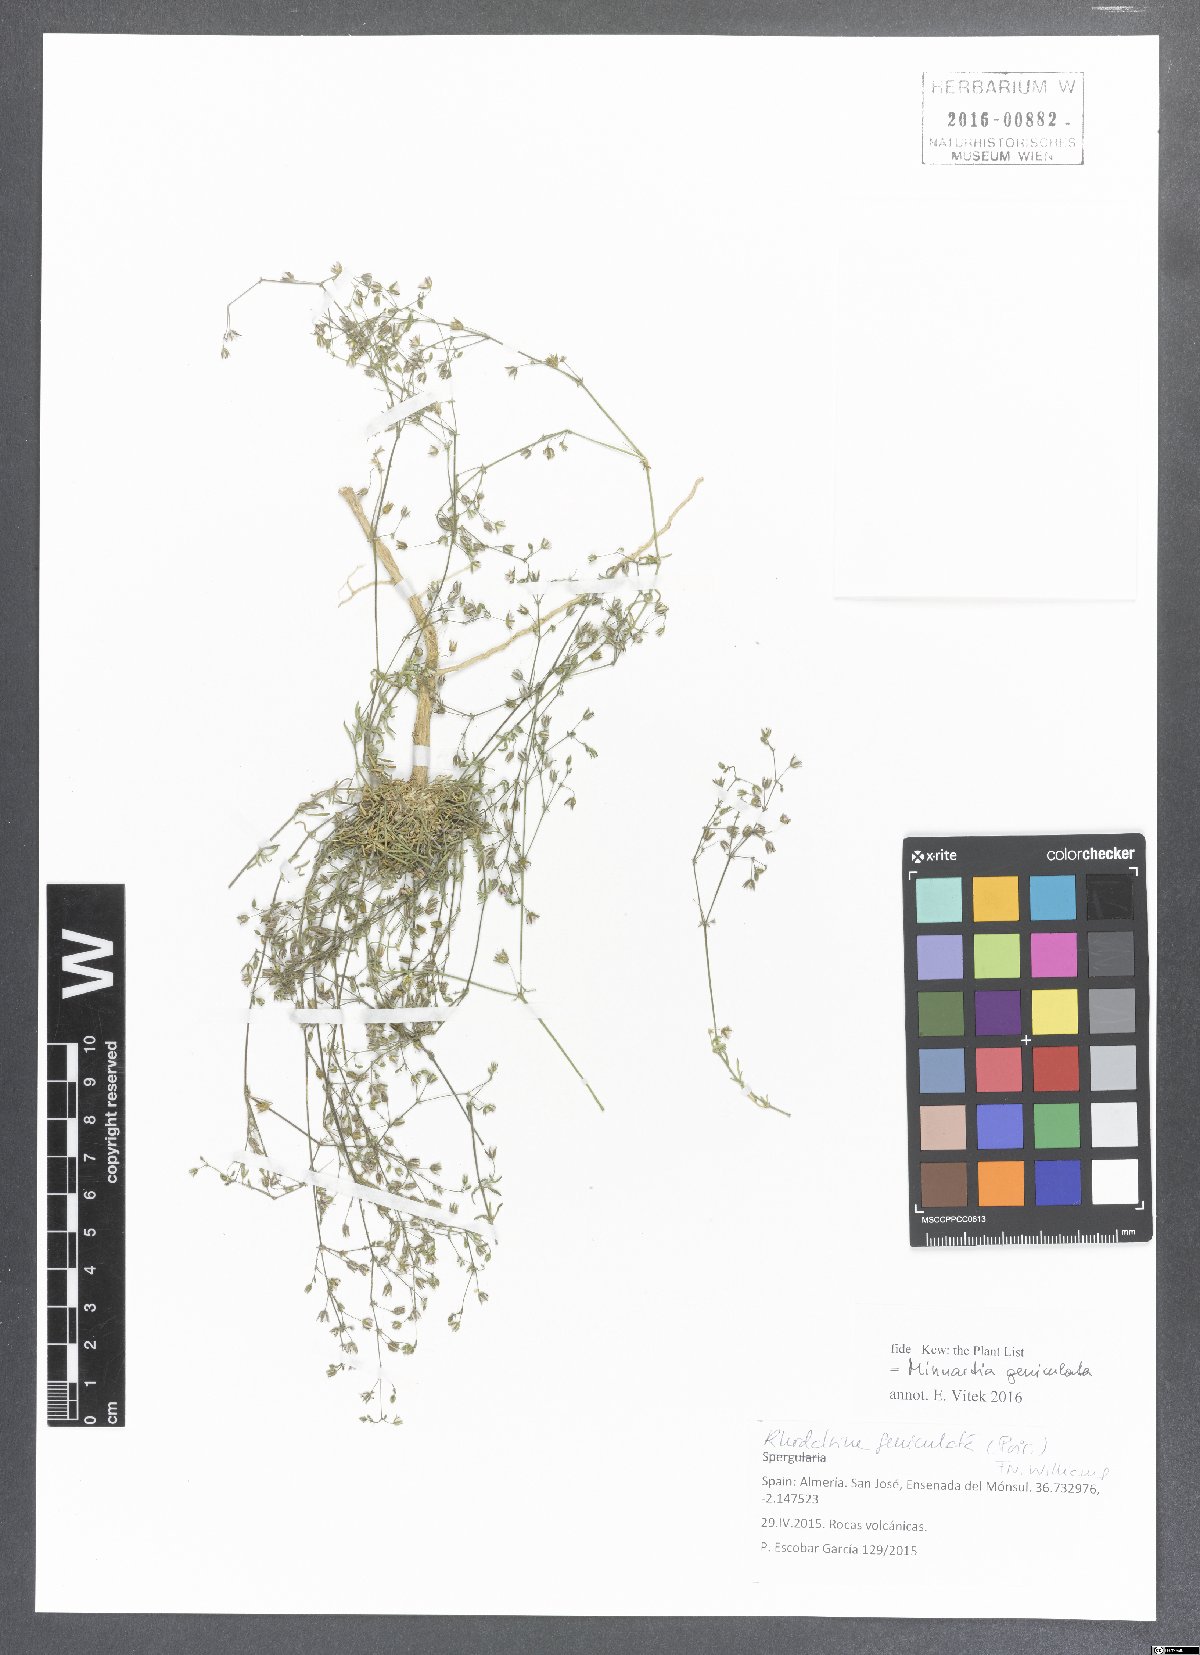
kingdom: Plantae
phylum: Tracheophyta
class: Magnoliopsida
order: Caryophyllales
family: Caryophyllaceae
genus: Rhodalsine
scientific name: Rhodalsine geniculata
